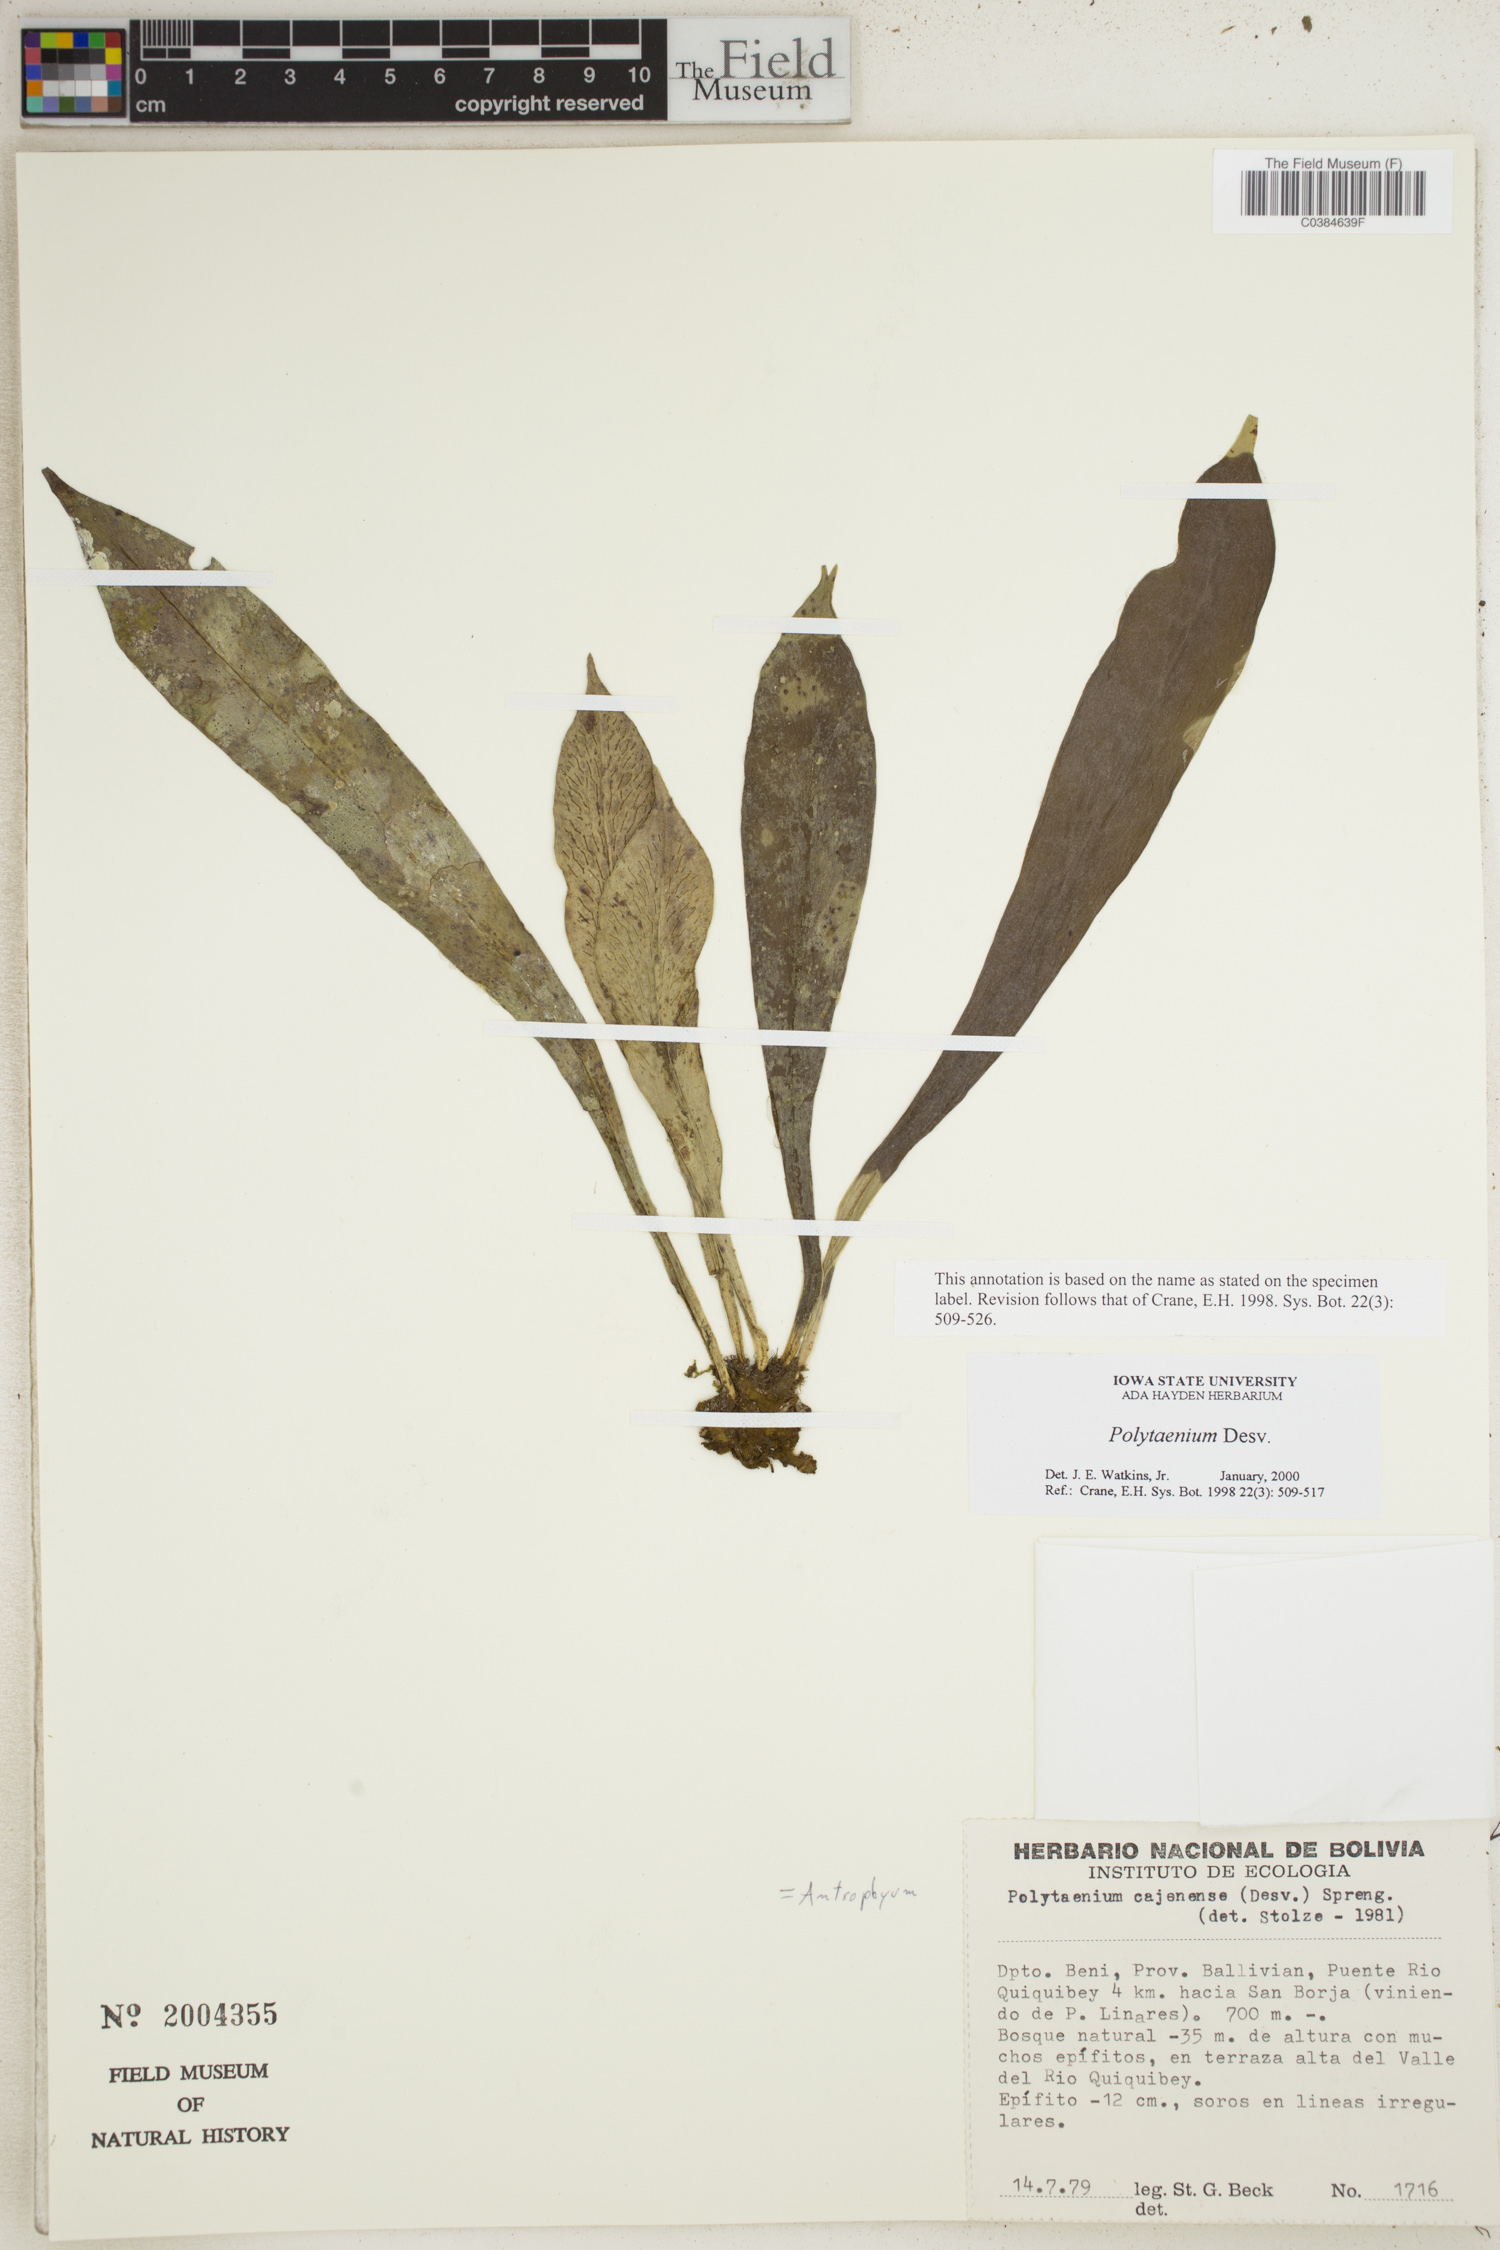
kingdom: Plantae
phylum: Tracheophyta
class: Polypodiopsida
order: Polypodiales
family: Pteridaceae
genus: Polytaenium
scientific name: Polytaenium
